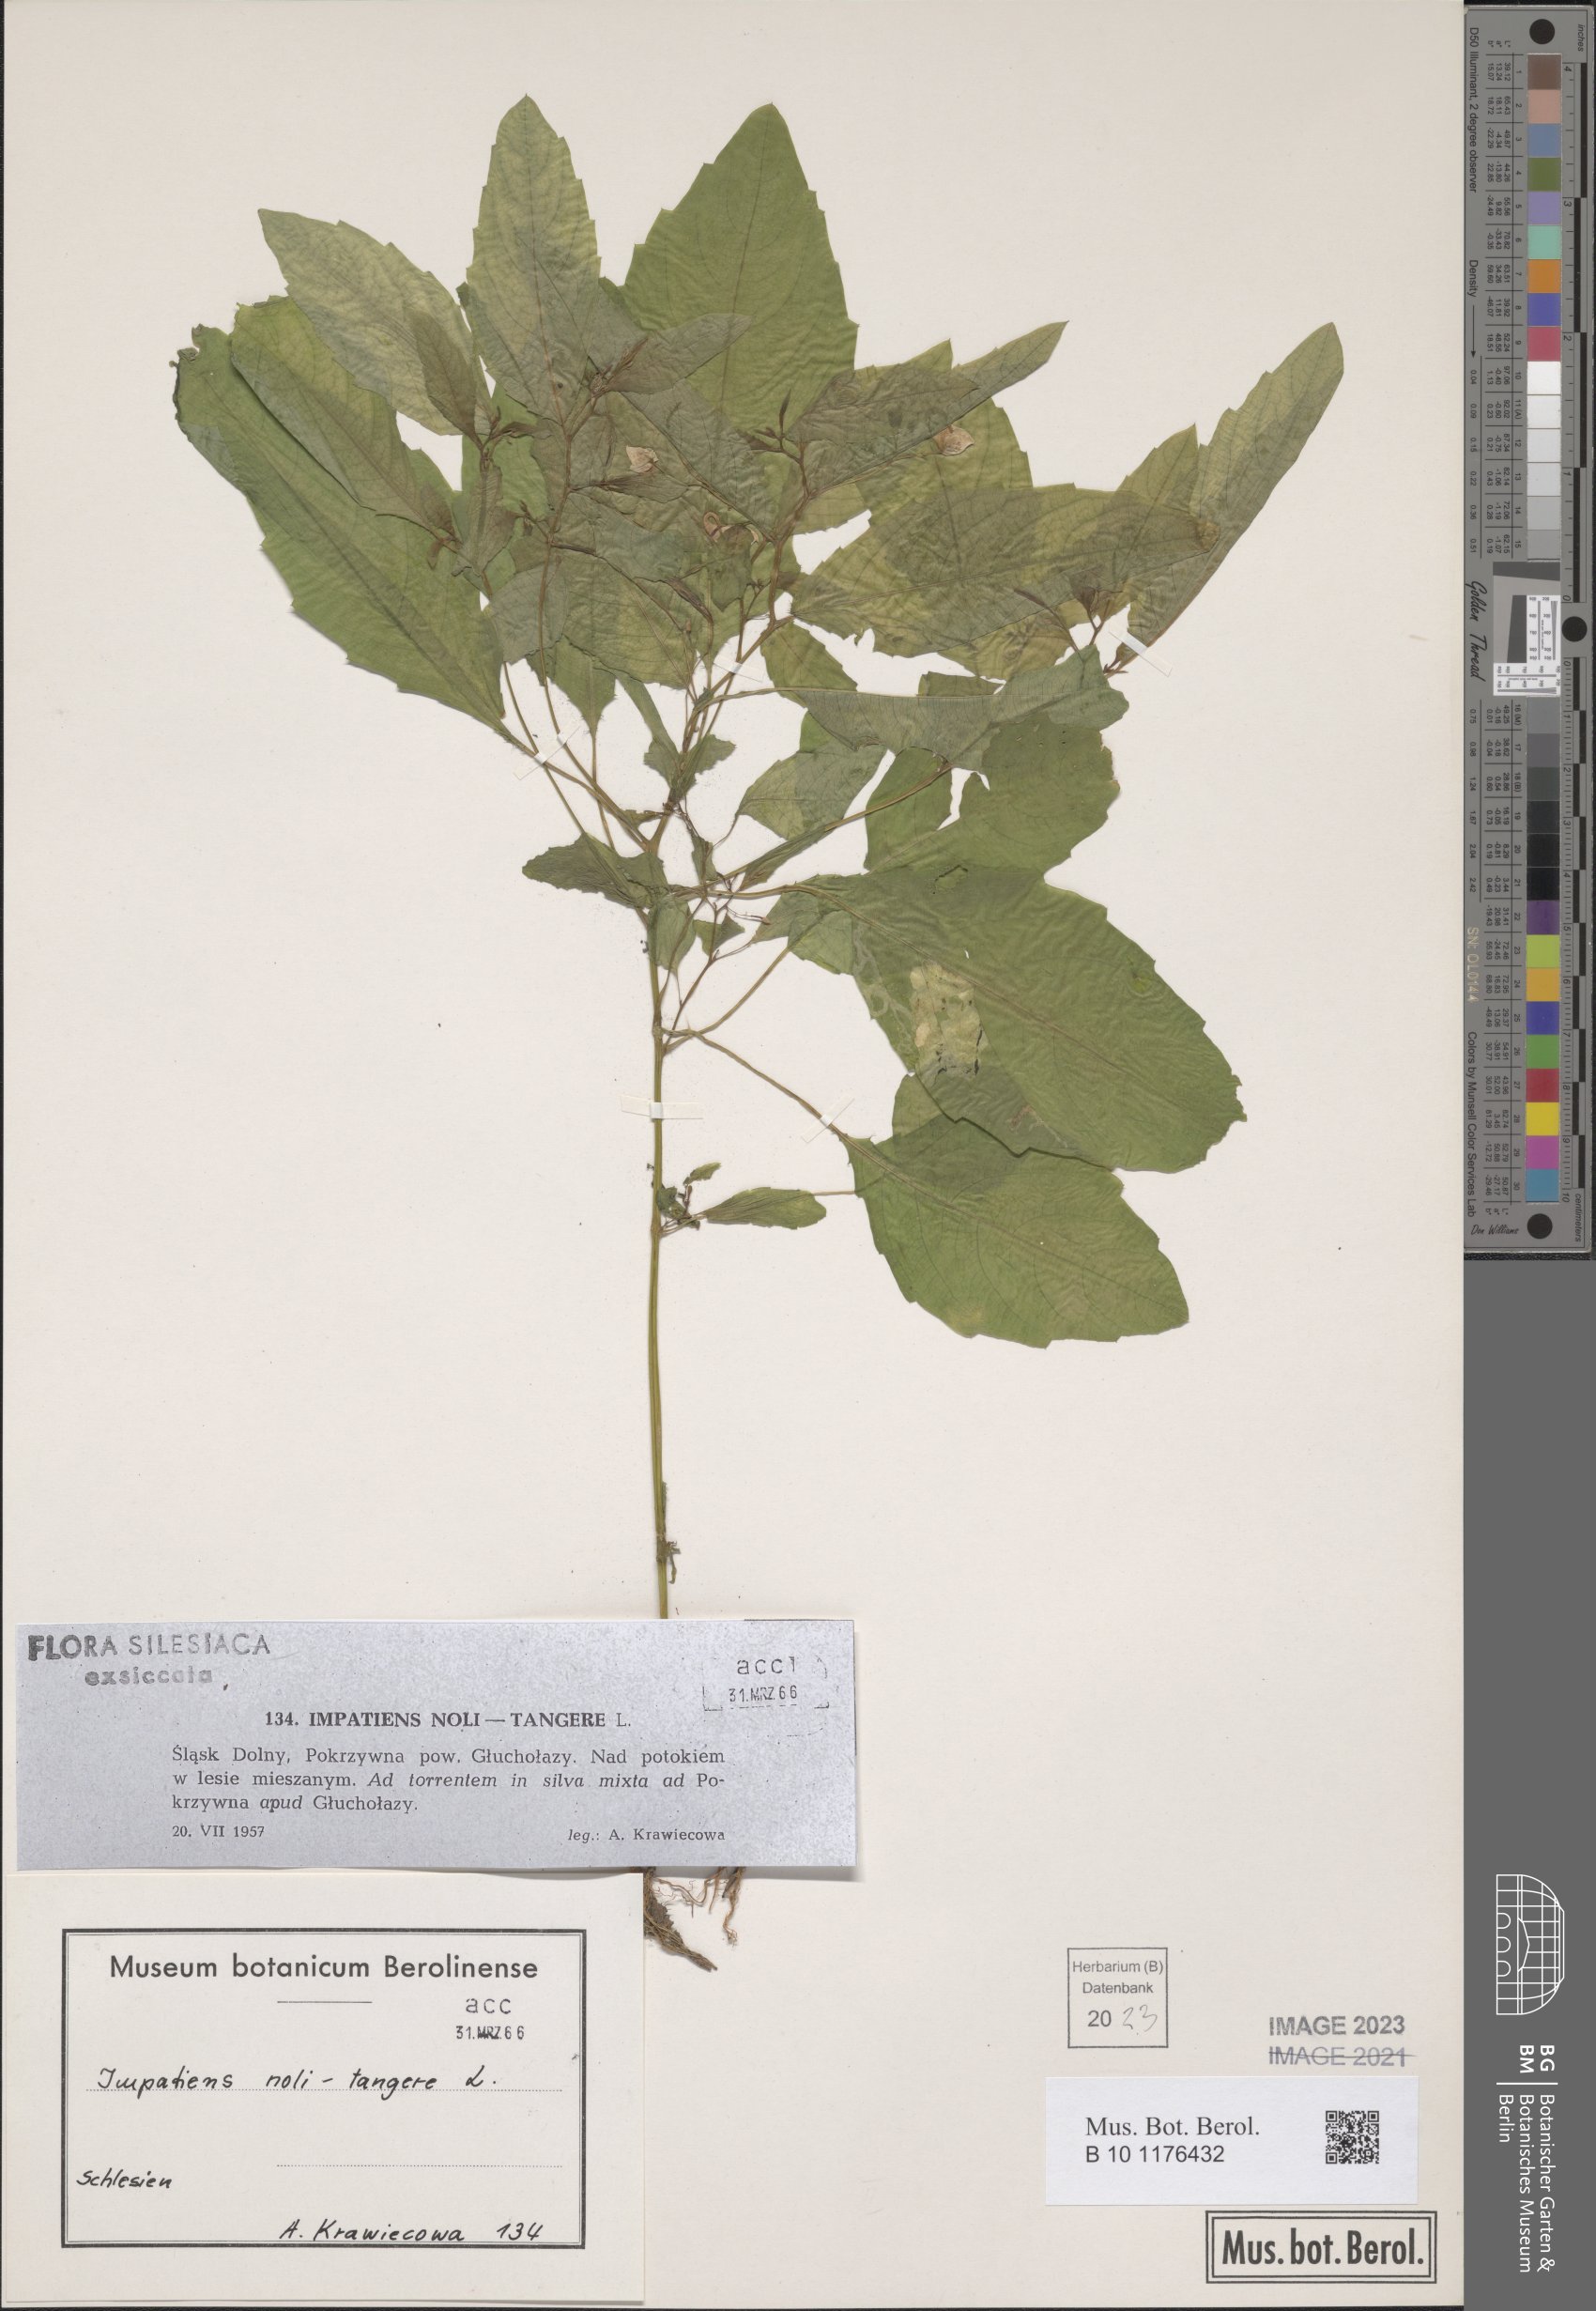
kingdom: Plantae
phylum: Tracheophyta
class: Magnoliopsida
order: Ericales
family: Balsaminaceae
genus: Impatiens
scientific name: Impatiens noli-tangere
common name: Touch-me-not balsam
